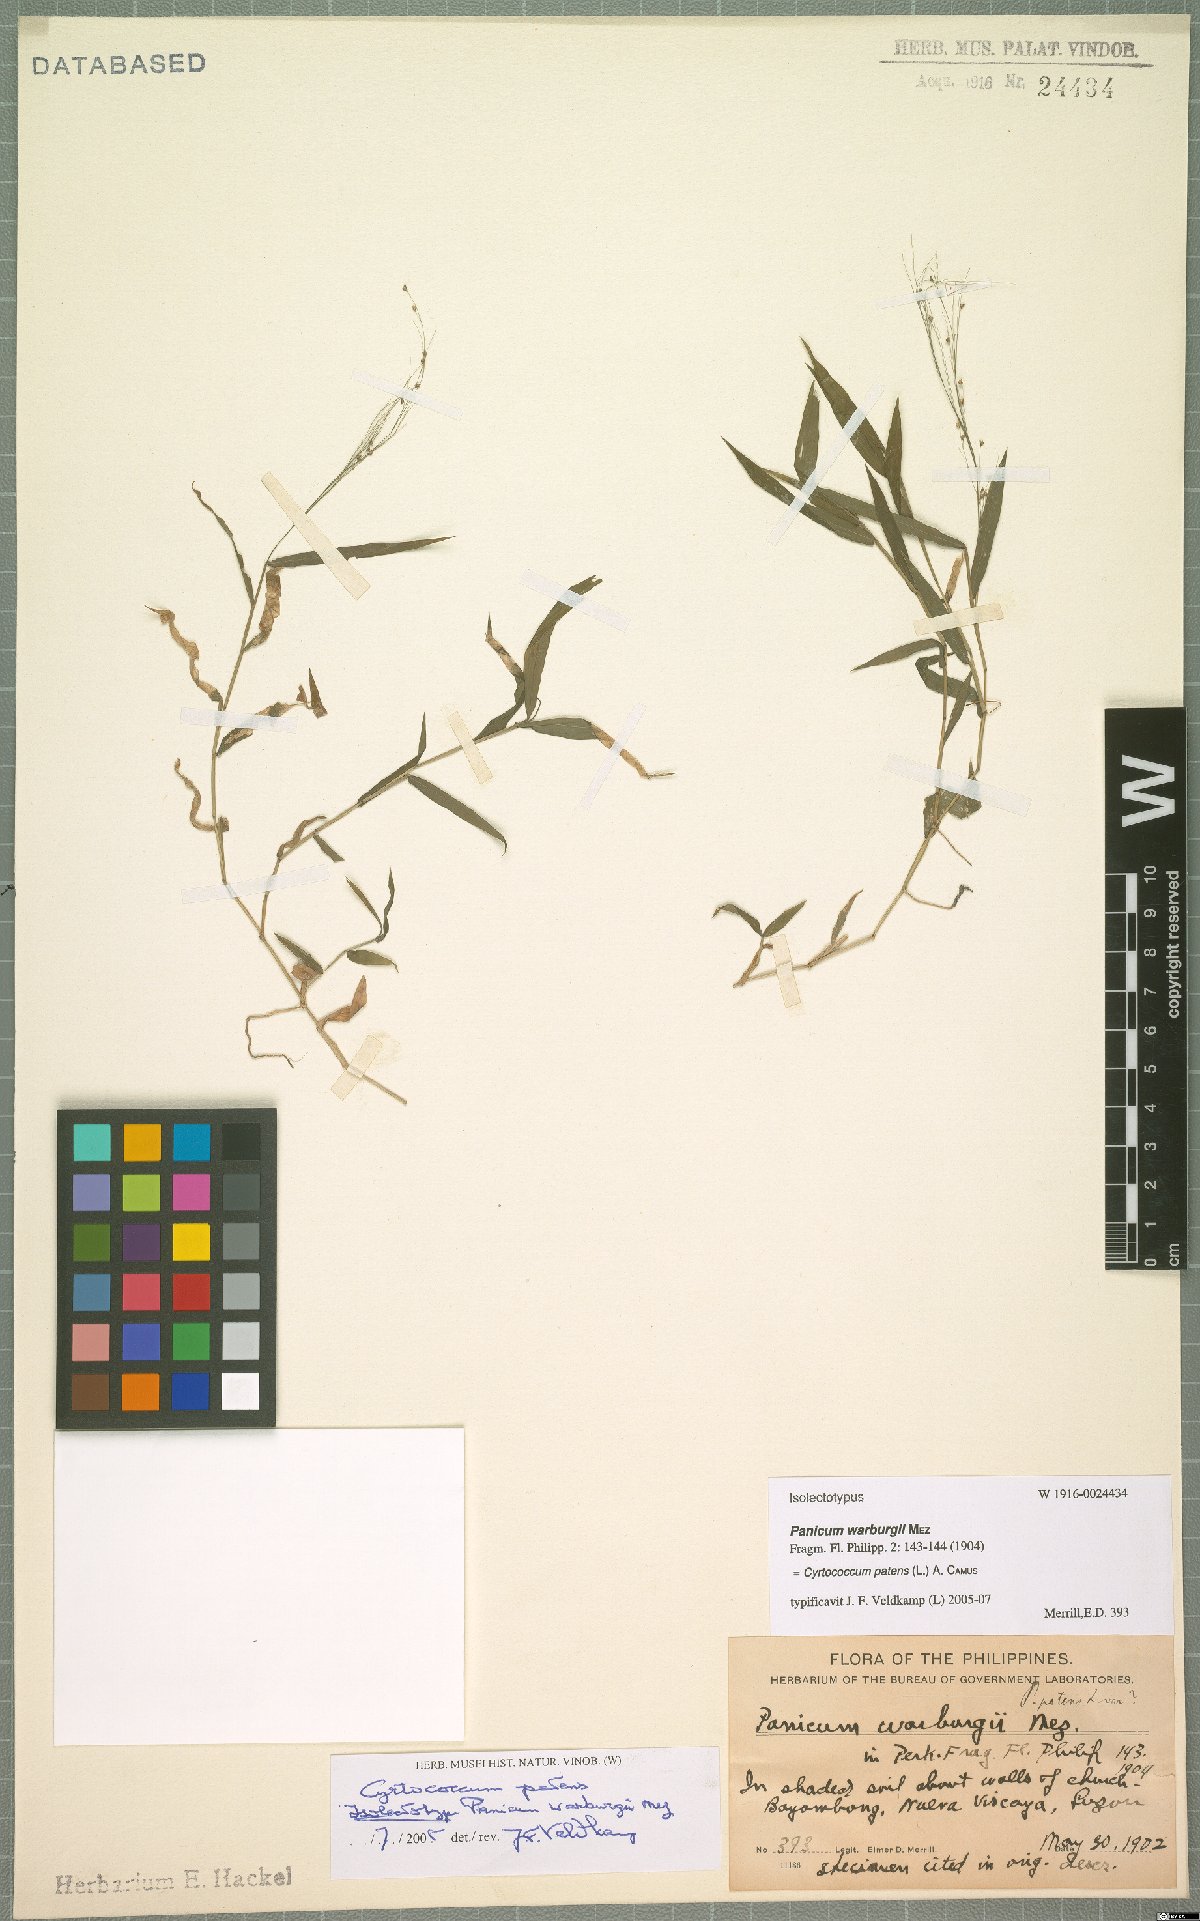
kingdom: Plantae
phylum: Tracheophyta
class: Liliopsida
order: Poales
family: Poaceae
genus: Cyrtococcum
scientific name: Cyrtococcum patens
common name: Broad-leaved bowgrass
